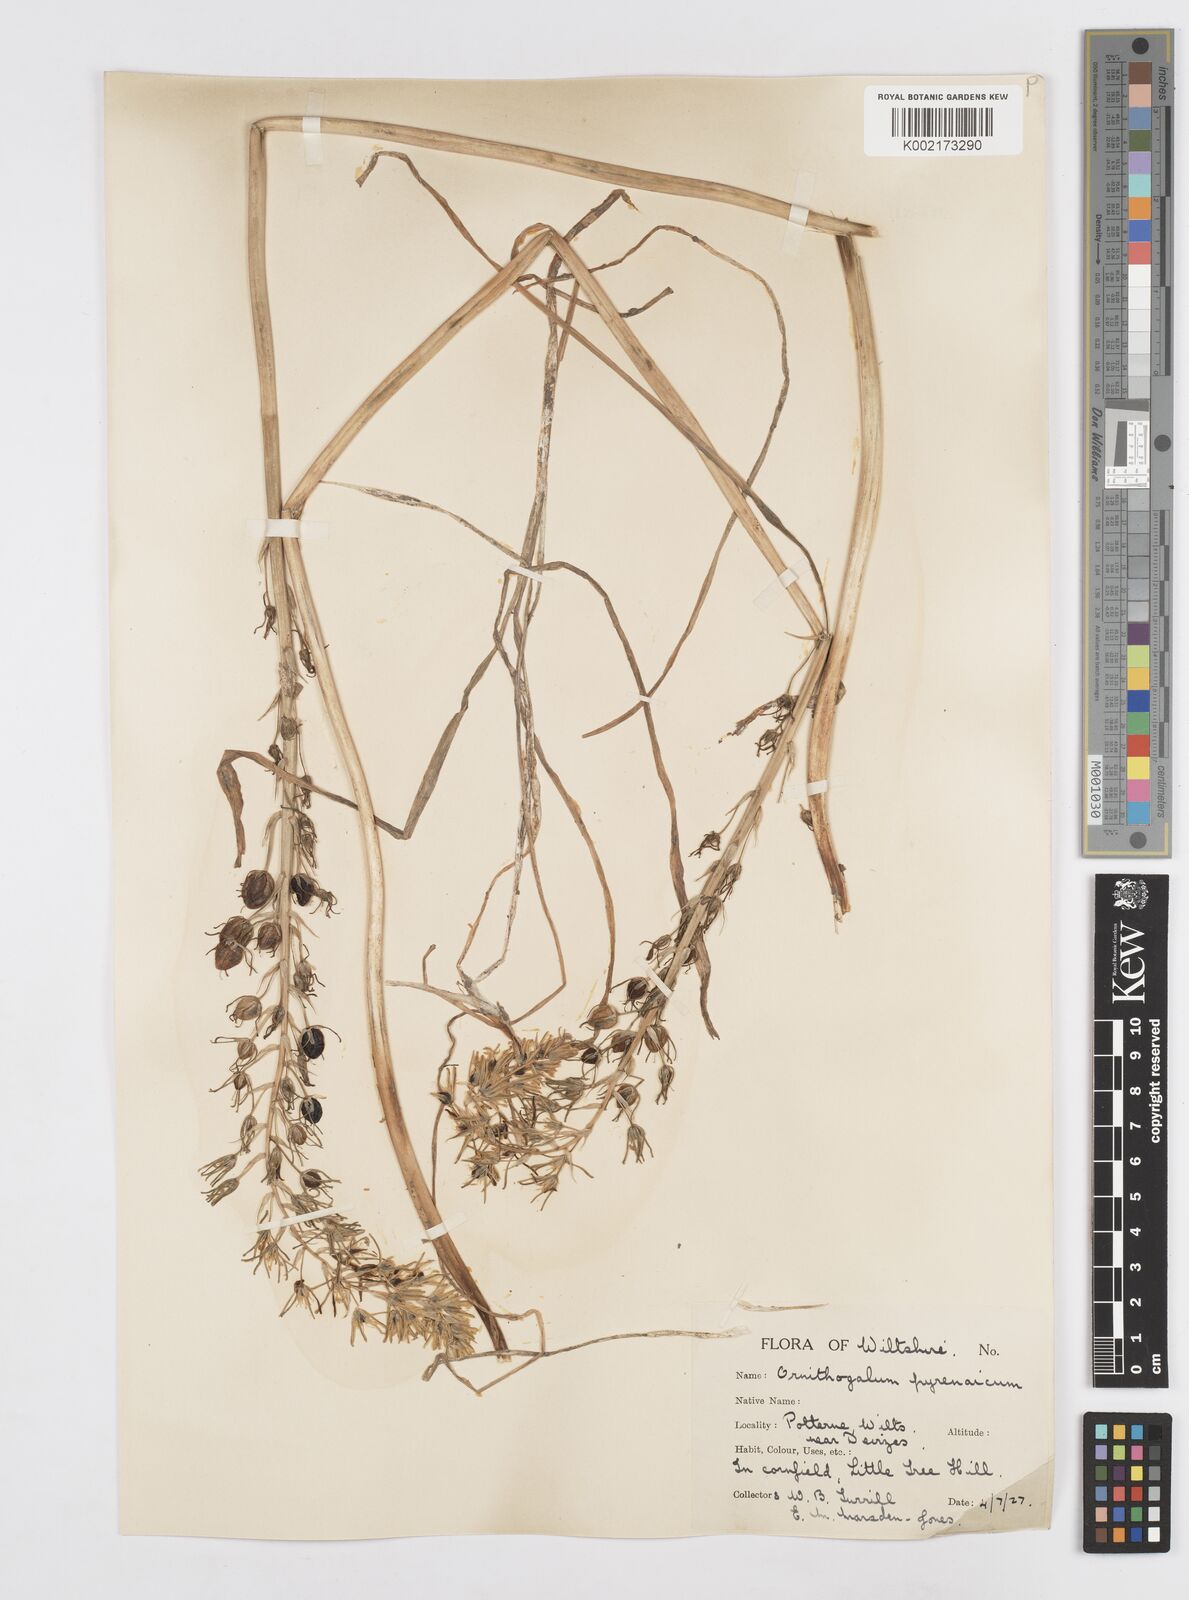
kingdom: Plantae
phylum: Tracheophyta
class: Liliopsida
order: Asparagales
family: Asparagaceae
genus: Ornithogalum
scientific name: Ornithogalum pyrenaicum
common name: Spiked star-of-bethlehem
